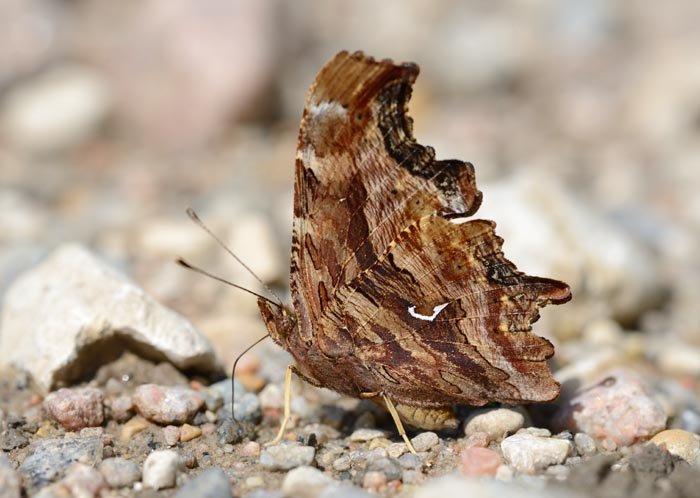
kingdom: Animalia
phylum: Arthropoda
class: Insecta
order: Lepidoptera
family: Nymphalidae
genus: Polygonia
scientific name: Polygonia satyrus
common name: Satyr Comma
